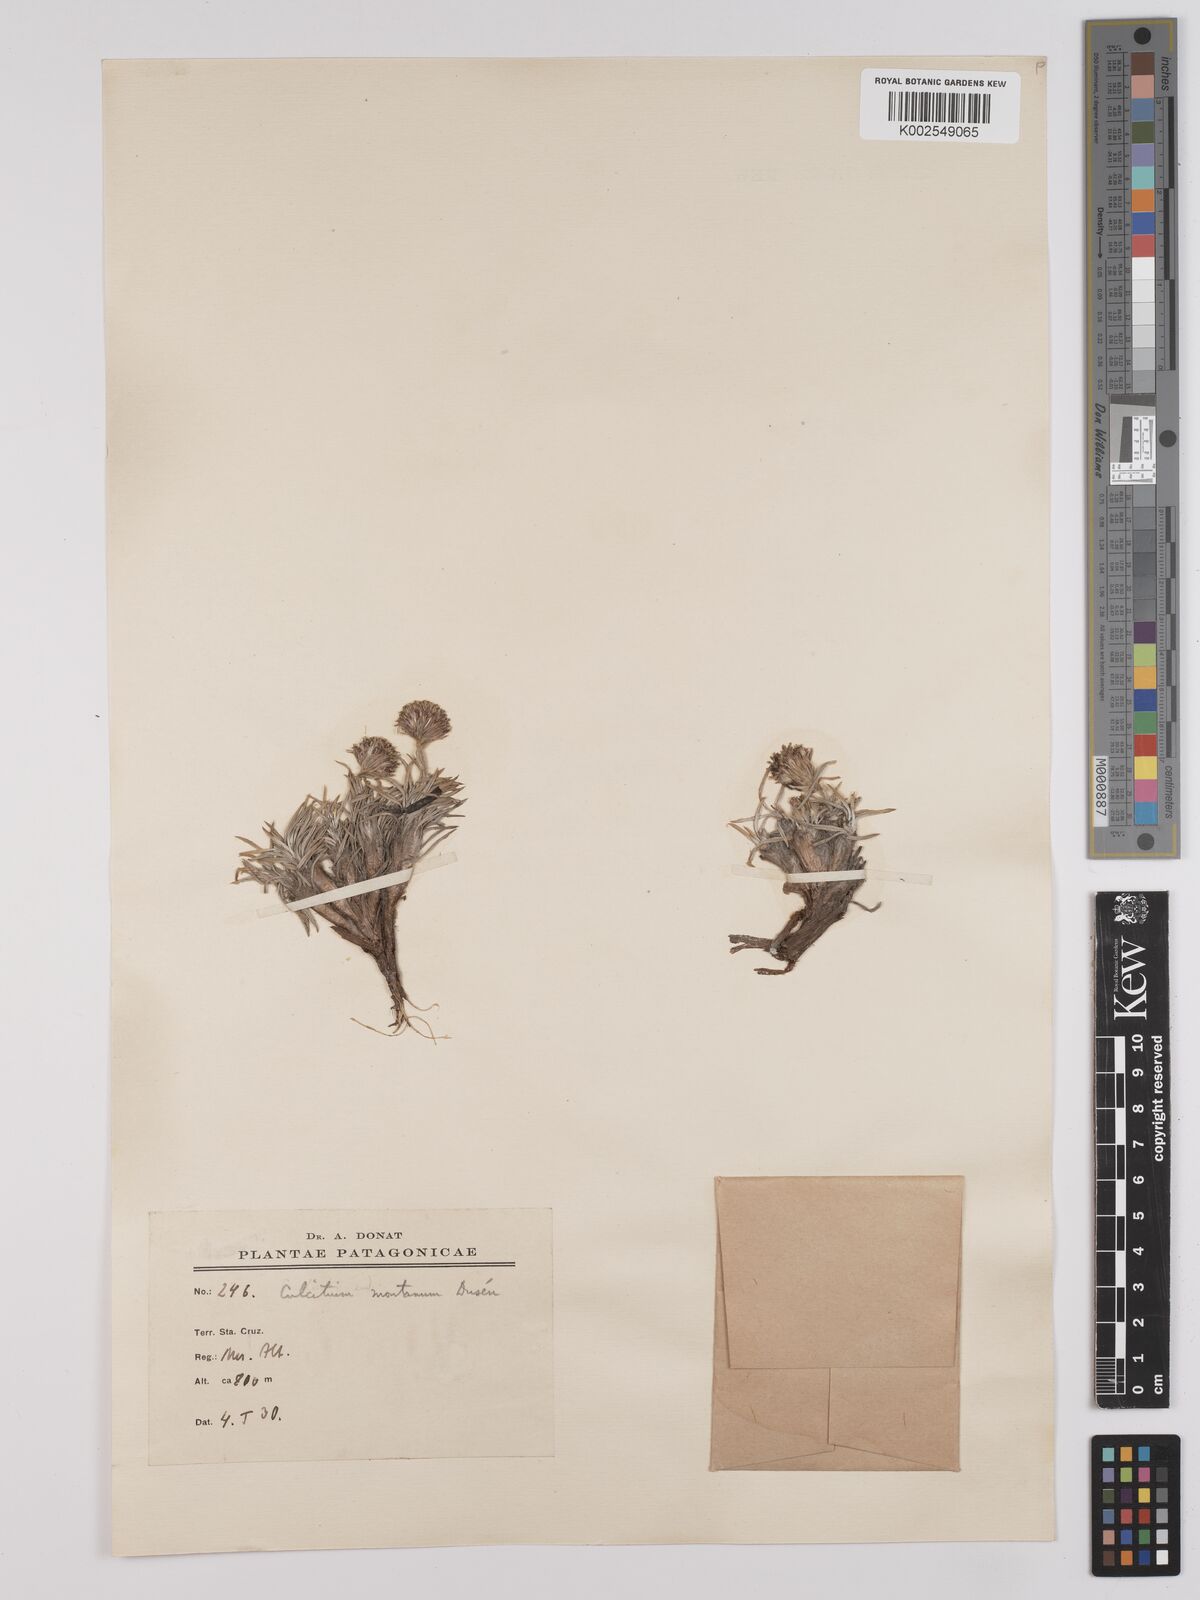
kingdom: Plantae
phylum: Tracheophyta
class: Magnoliopsida
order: Asterales
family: Asteraceae
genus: Senecio
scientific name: Senecio
